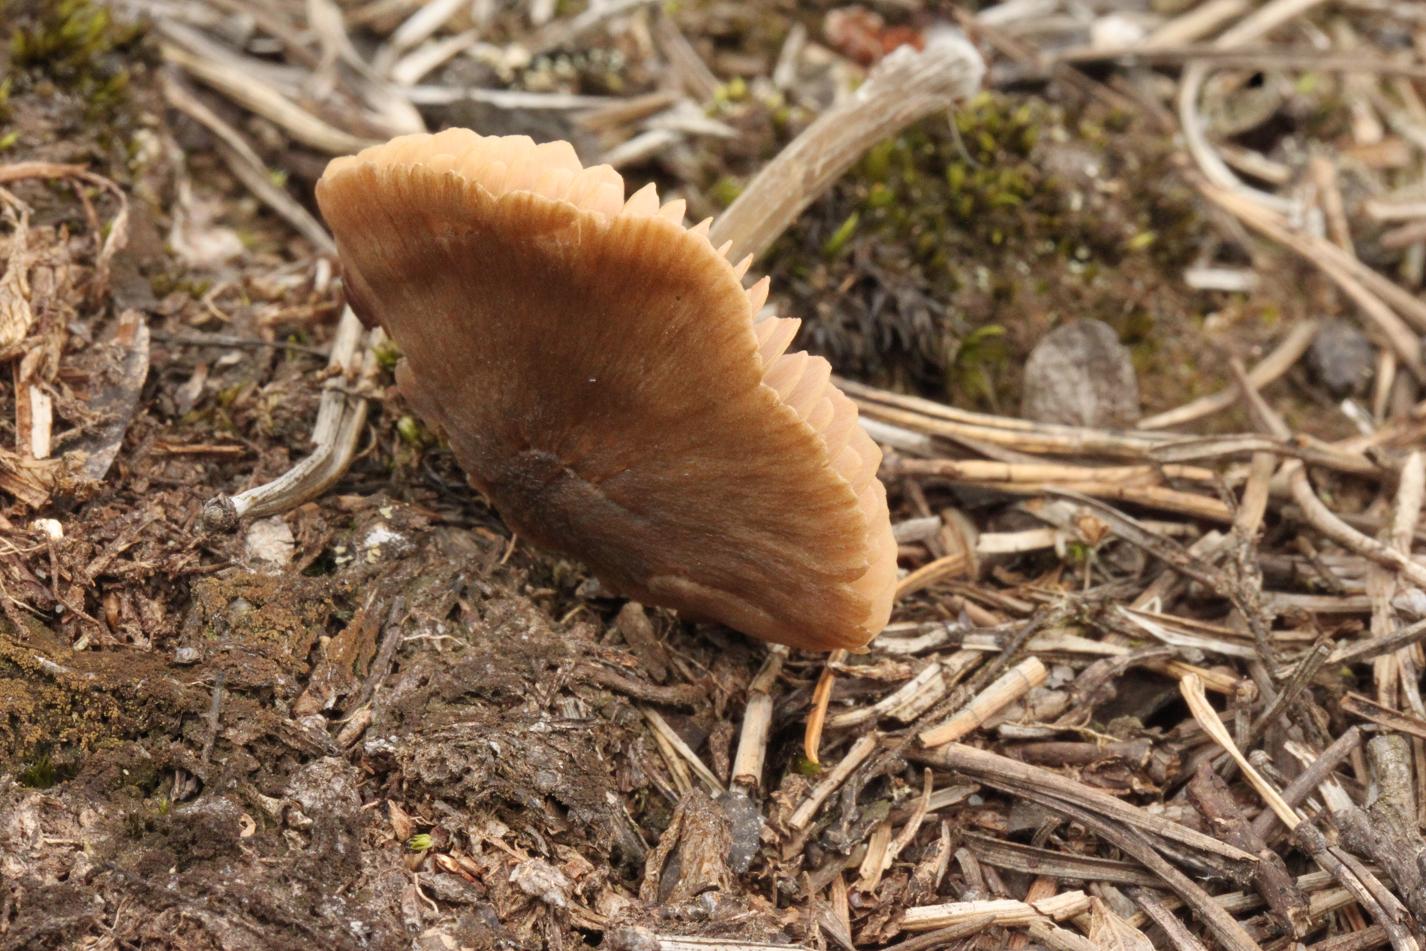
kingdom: Fungi
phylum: Basidiomycota
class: Agaricomycetes
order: Agaricales
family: Entolomataceae
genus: Entoloma
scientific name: Entoloma conferendum
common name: stjernesporet rødblad
